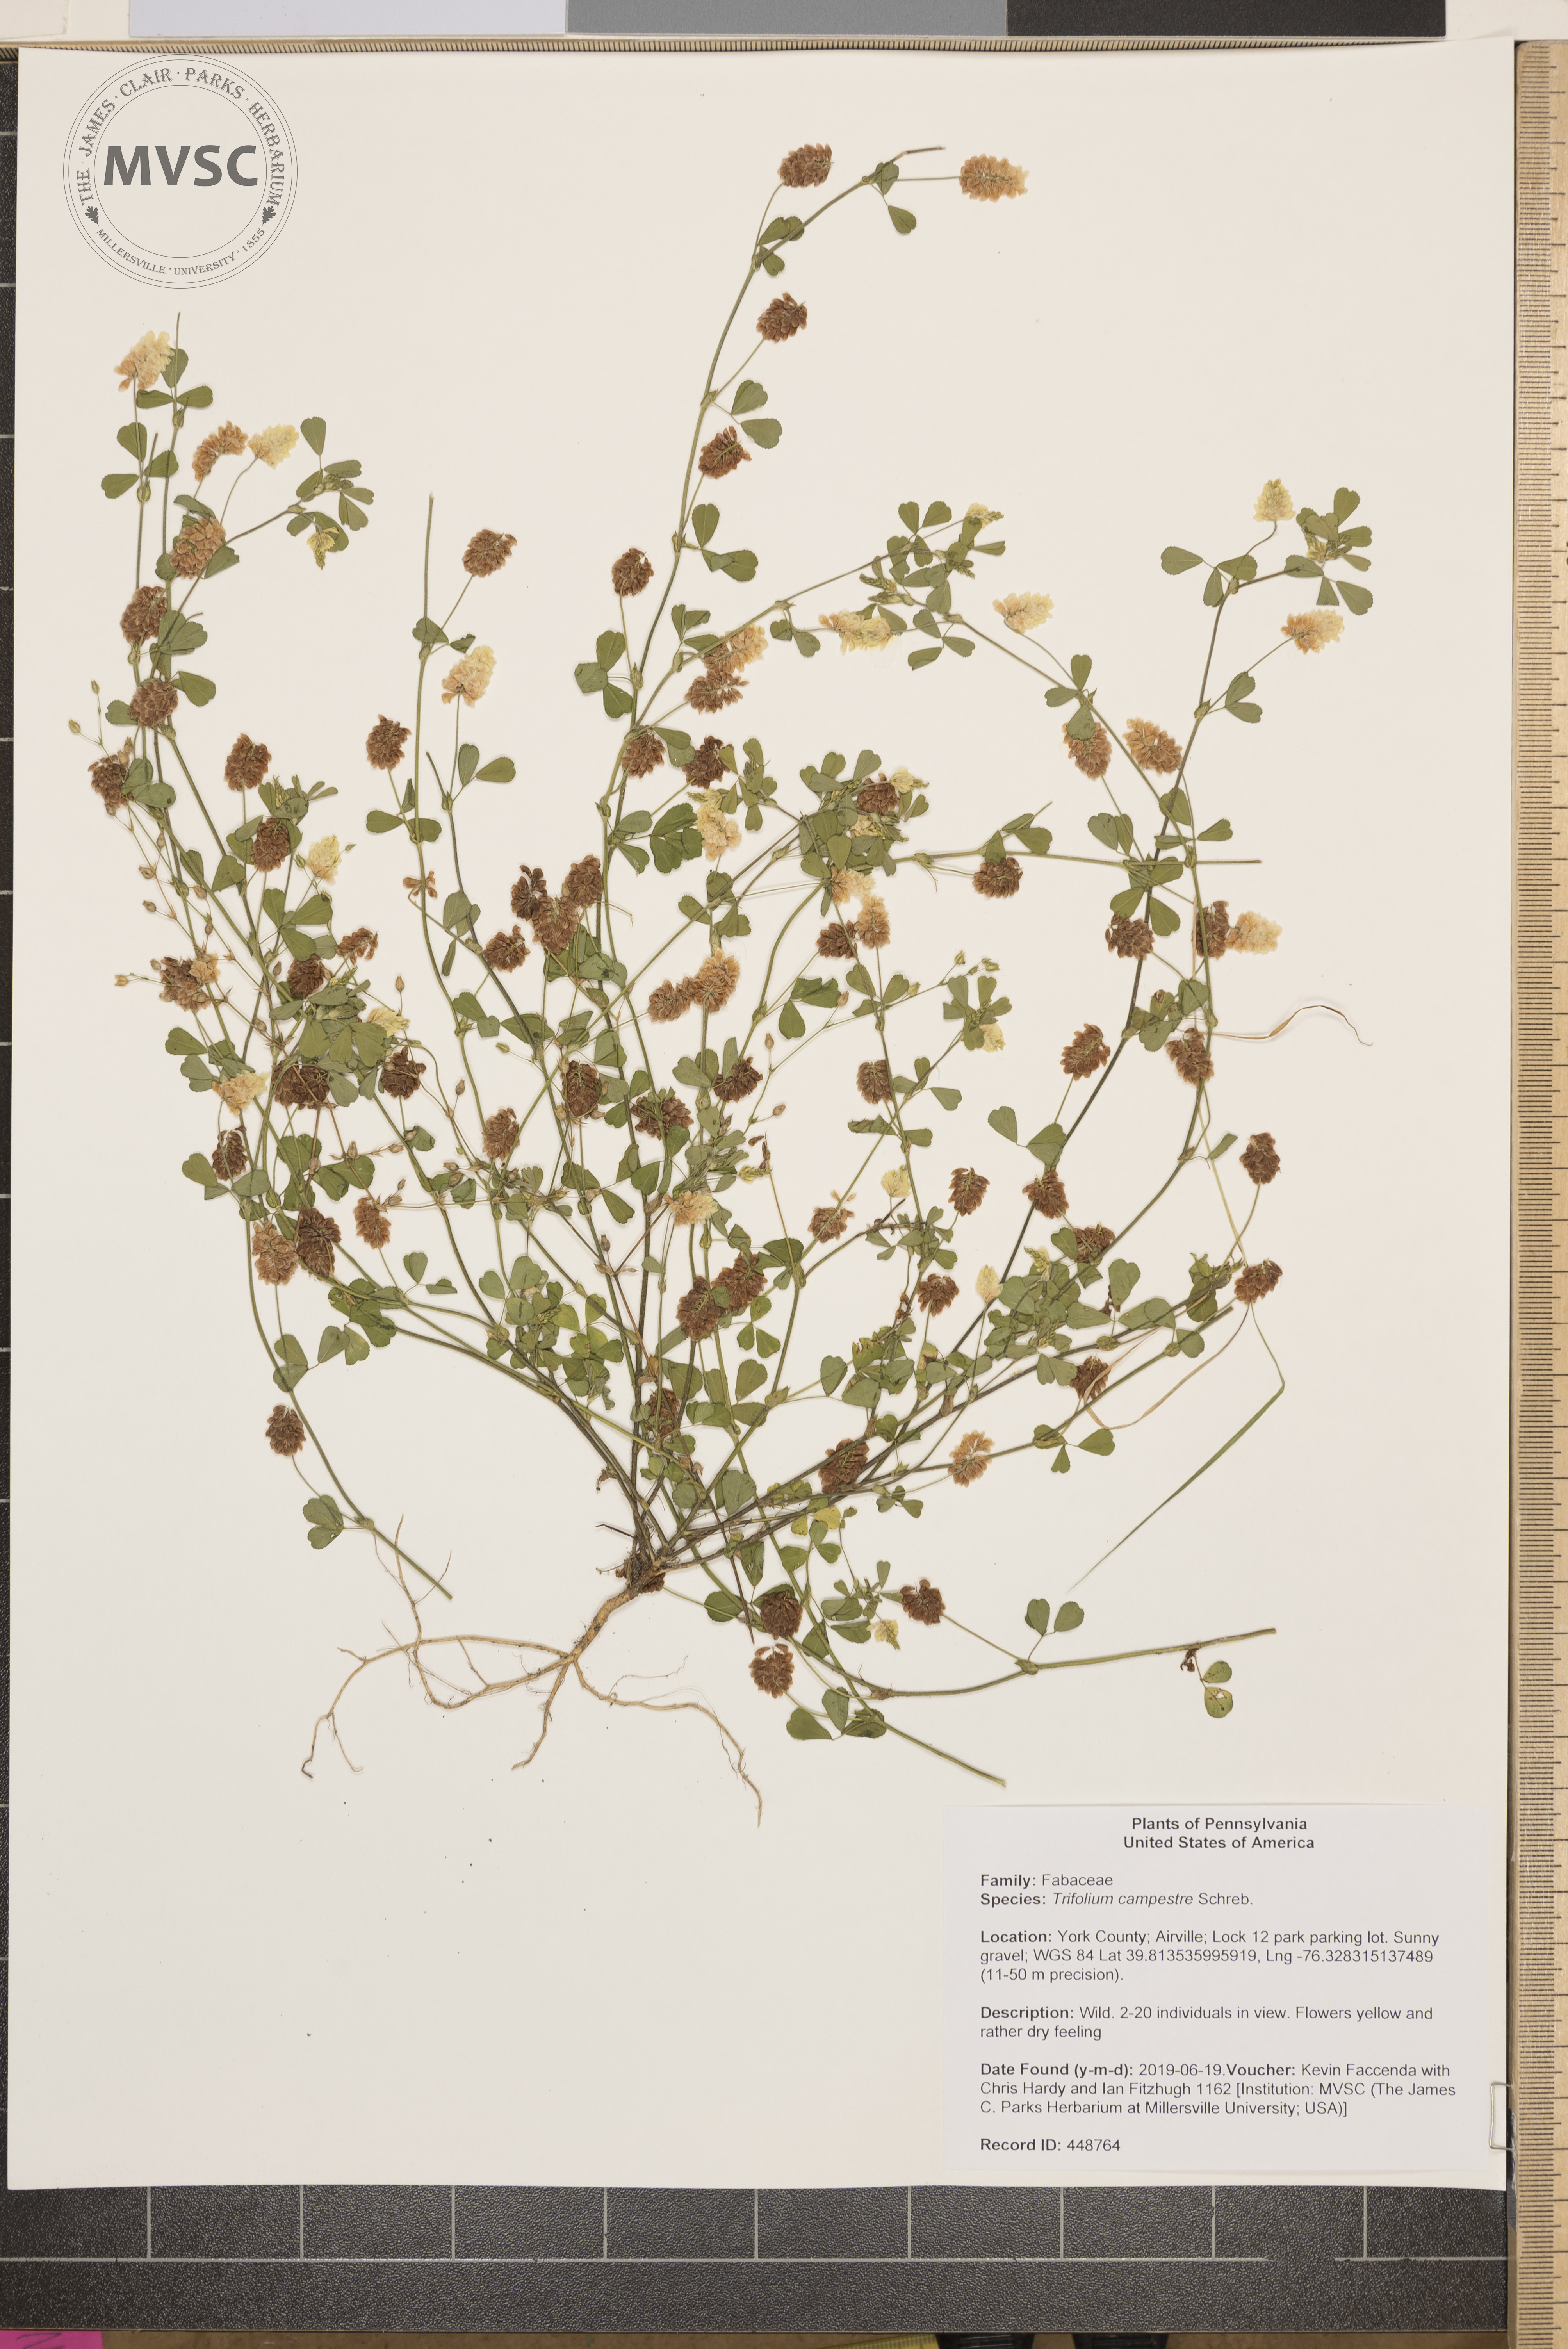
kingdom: Plantae
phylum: Tracheophyta
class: Magnoliopsida
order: Fabales
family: Fabaceae
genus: Trifolium
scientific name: Trifolium campestre
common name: Field clover
